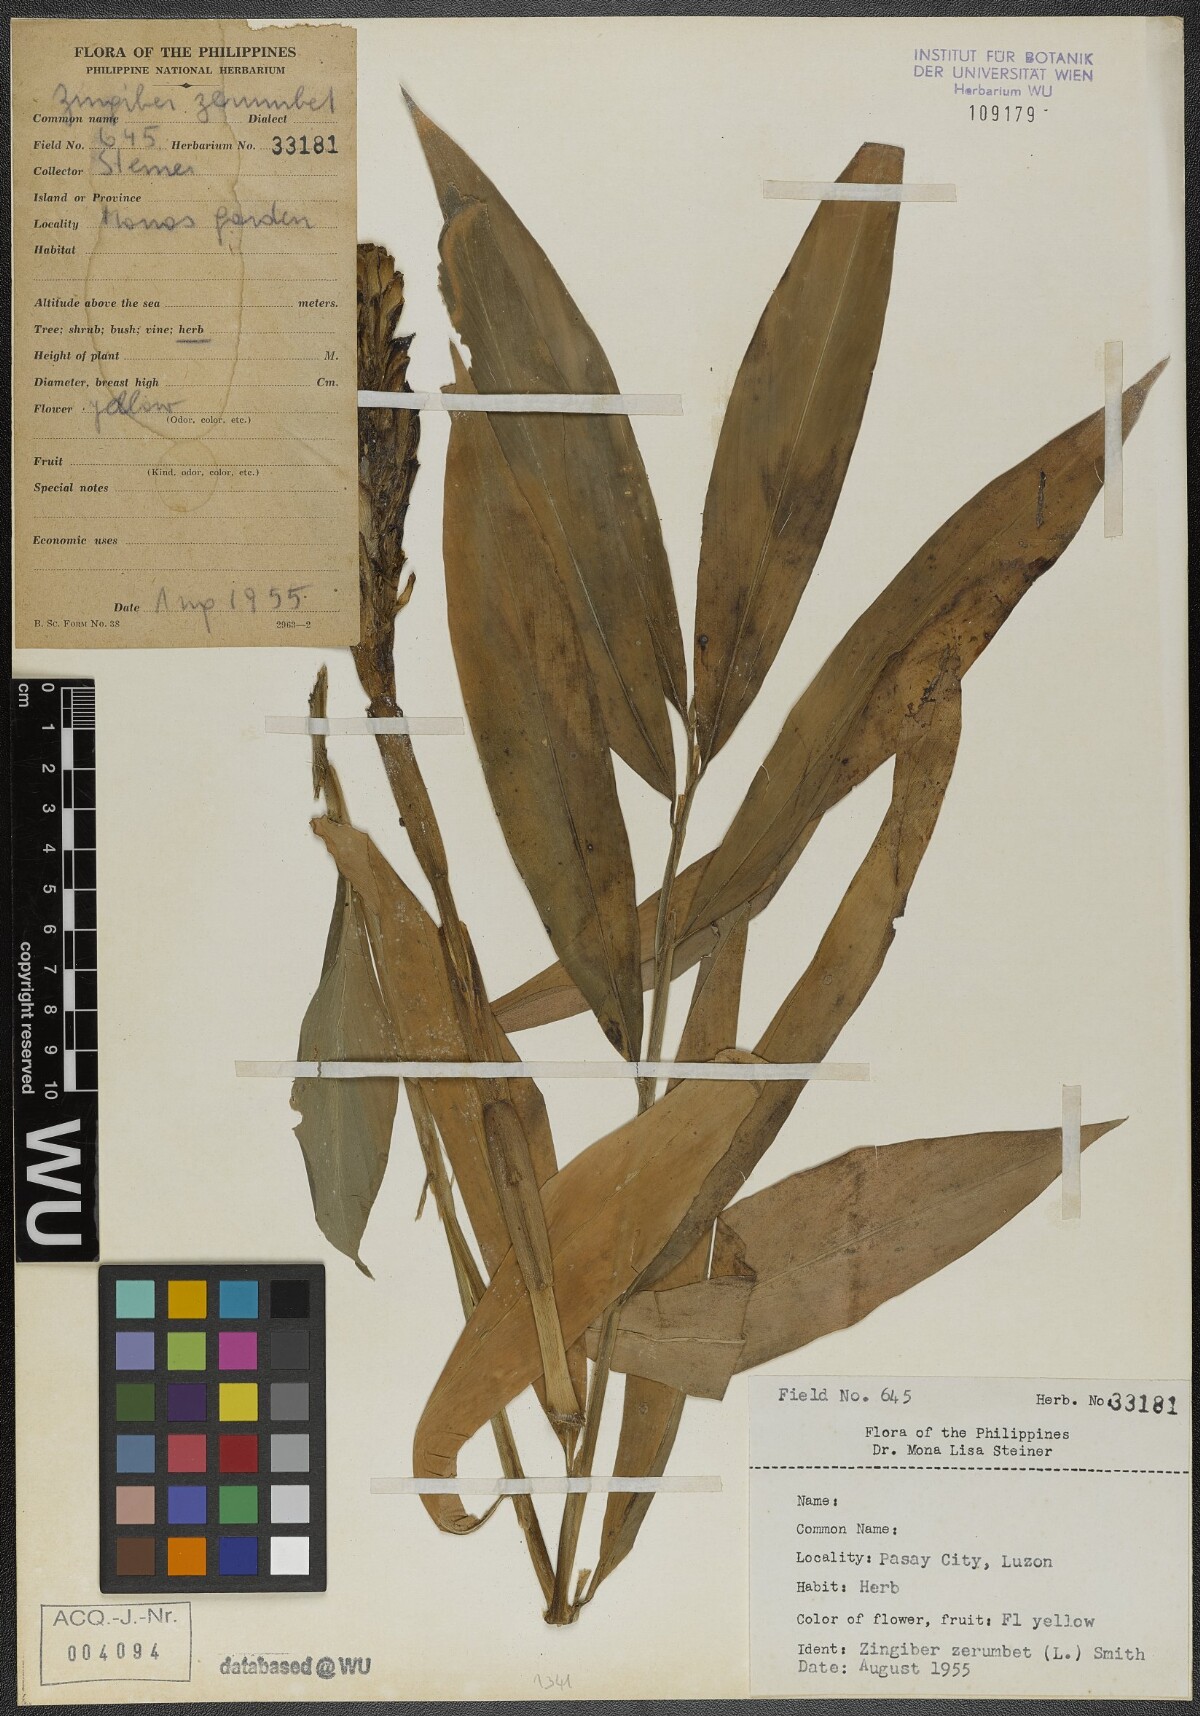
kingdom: Plantae
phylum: Tracheophyta
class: Liliopsida
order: Zingiberales
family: Zingiberaceae
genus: Zingiber
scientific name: Zingiber zerumbet
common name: Bitter ginger
